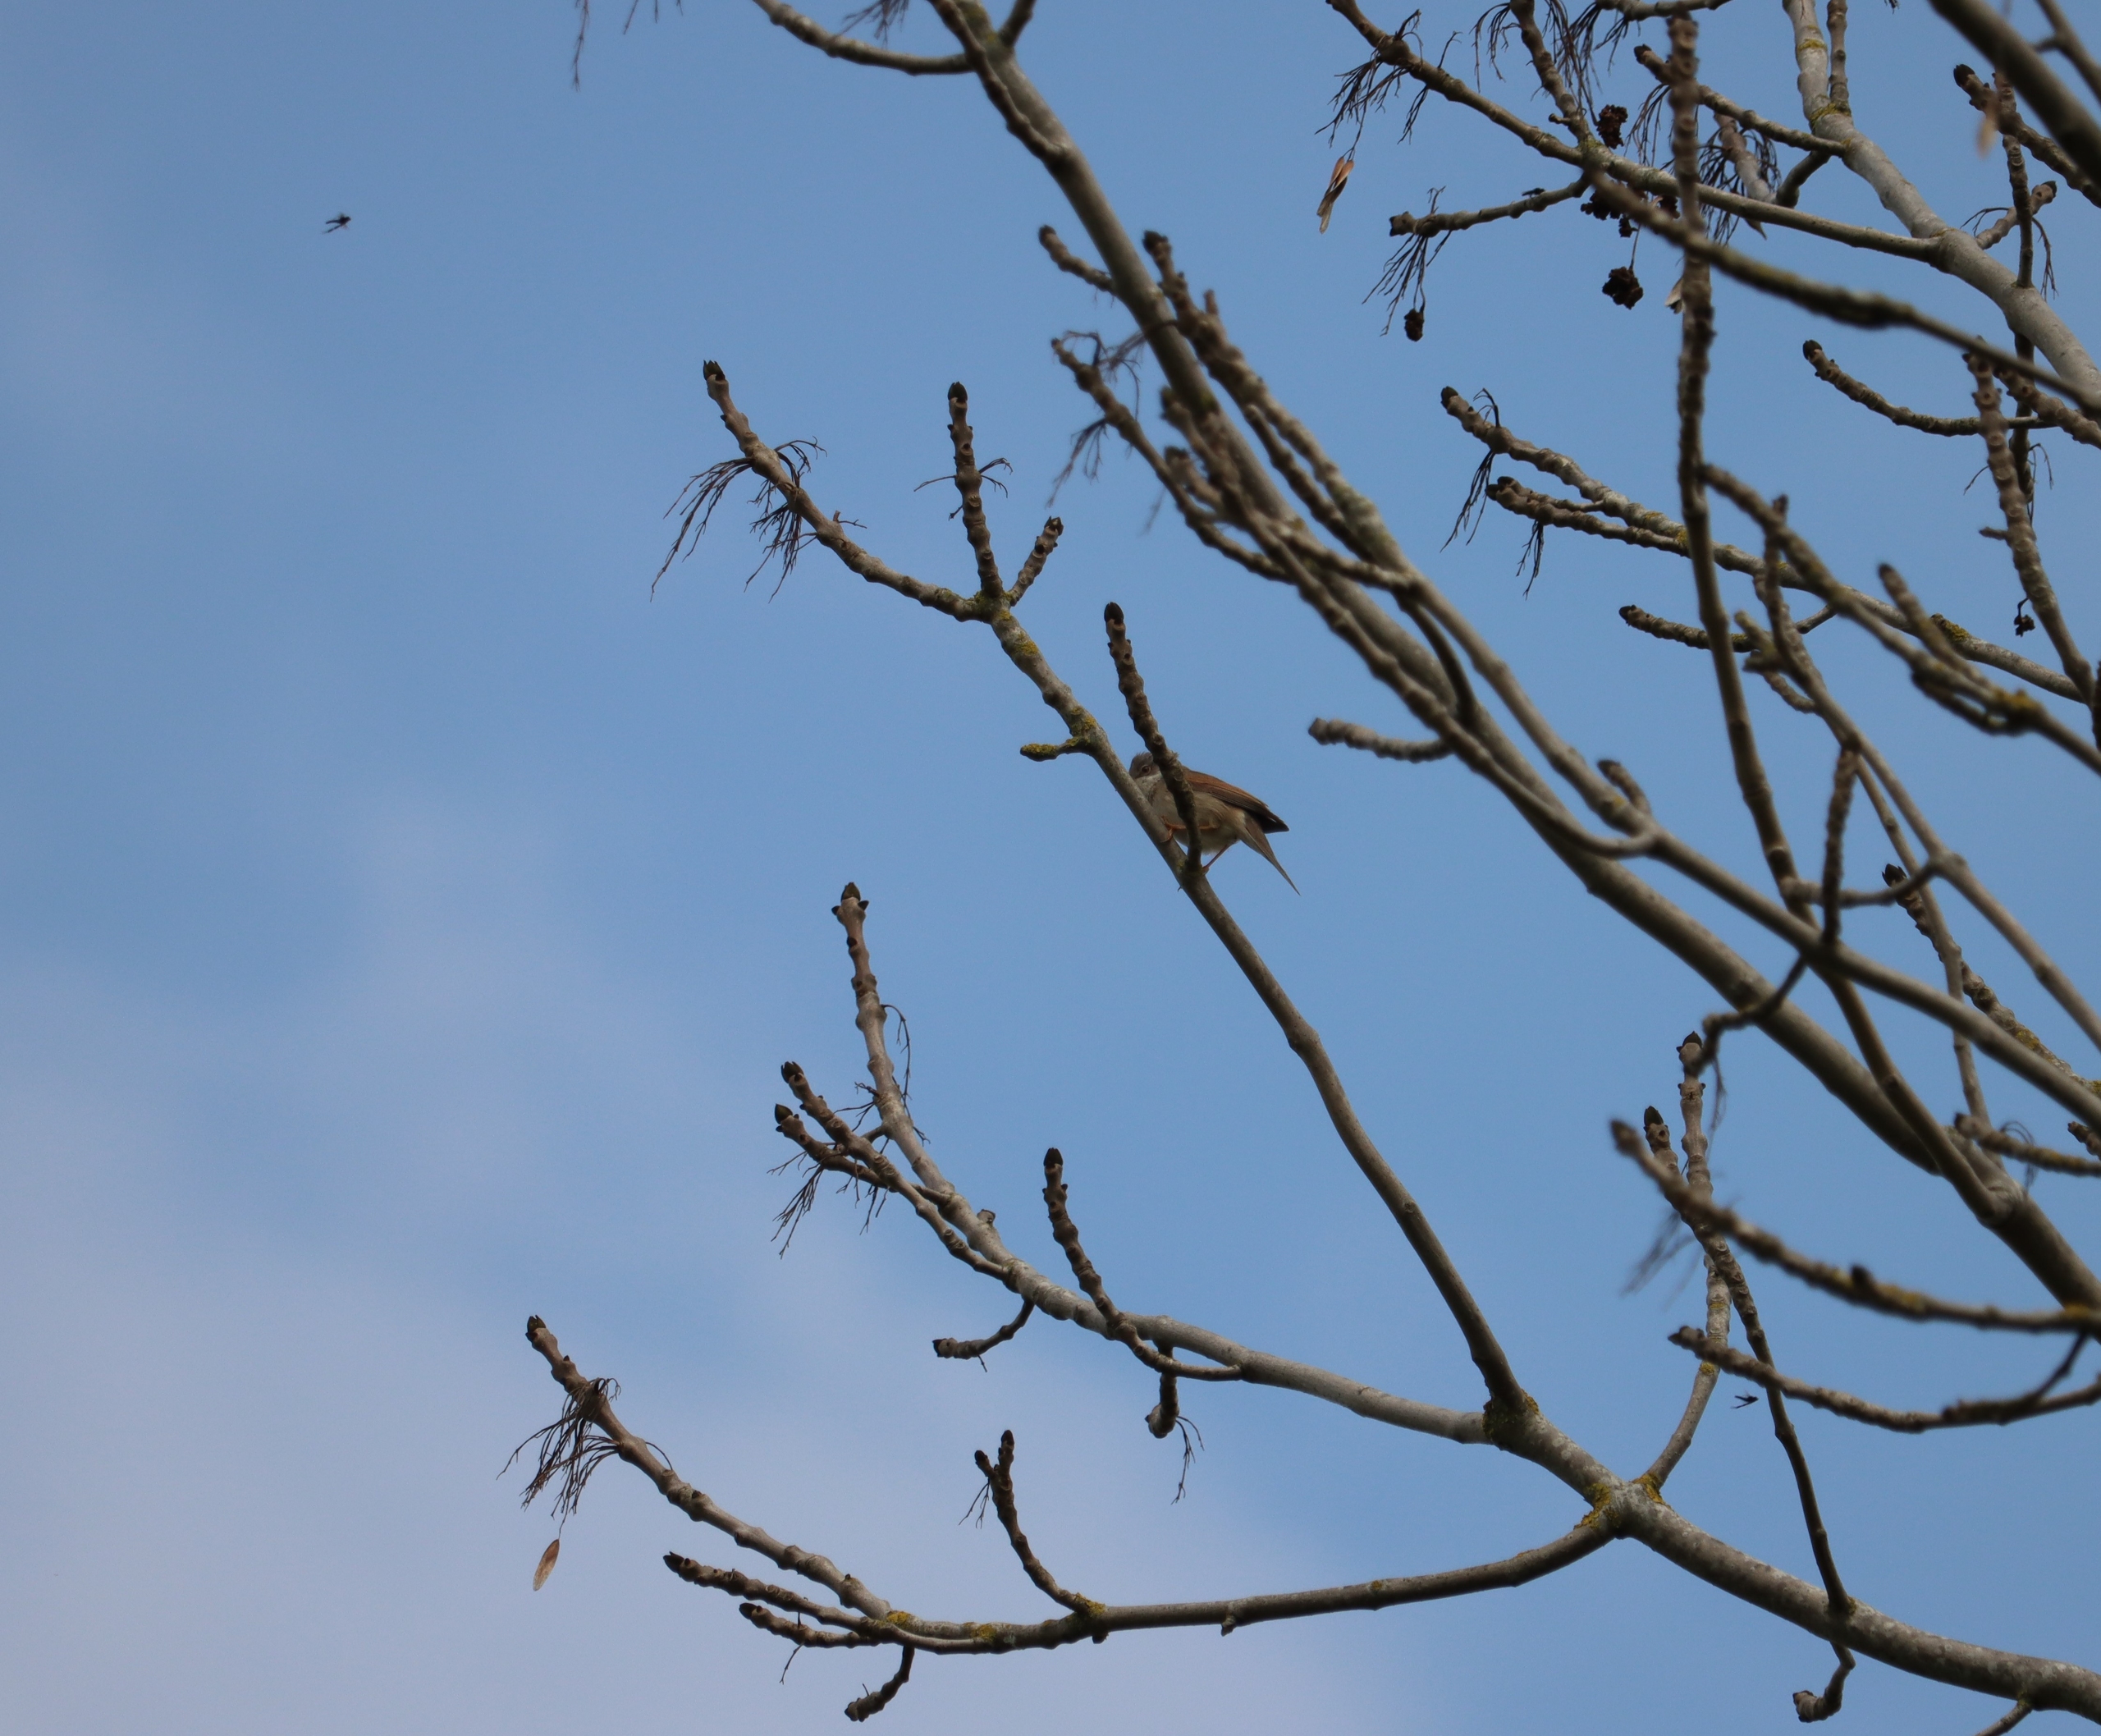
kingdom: Animalia
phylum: Chordata
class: Aves
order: Passeriformes
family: Sylviidae
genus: Sylvia
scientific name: Sylvia communis
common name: Tornsanger
